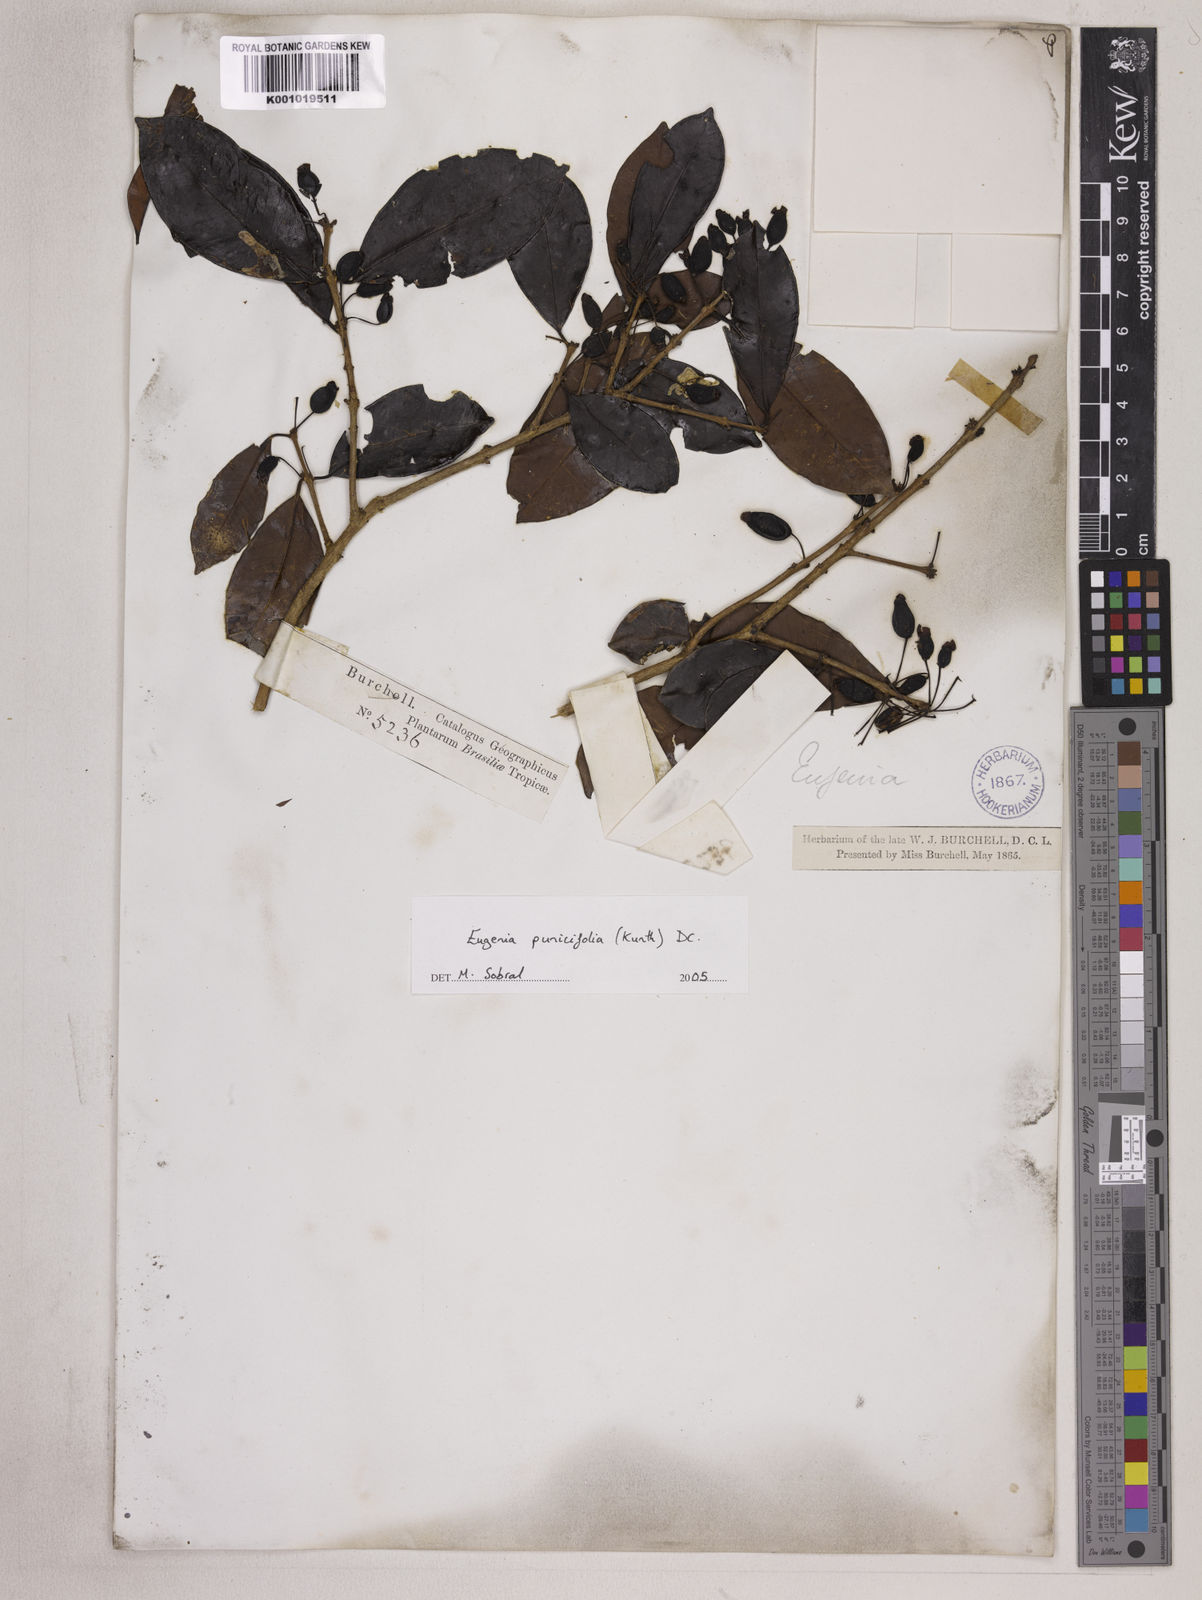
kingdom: Plantae
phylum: Tracheophyta
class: Magnoliopsida
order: Myrtales
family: Myrtaceae
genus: Eugenia
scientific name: Eugenia punicifolia
